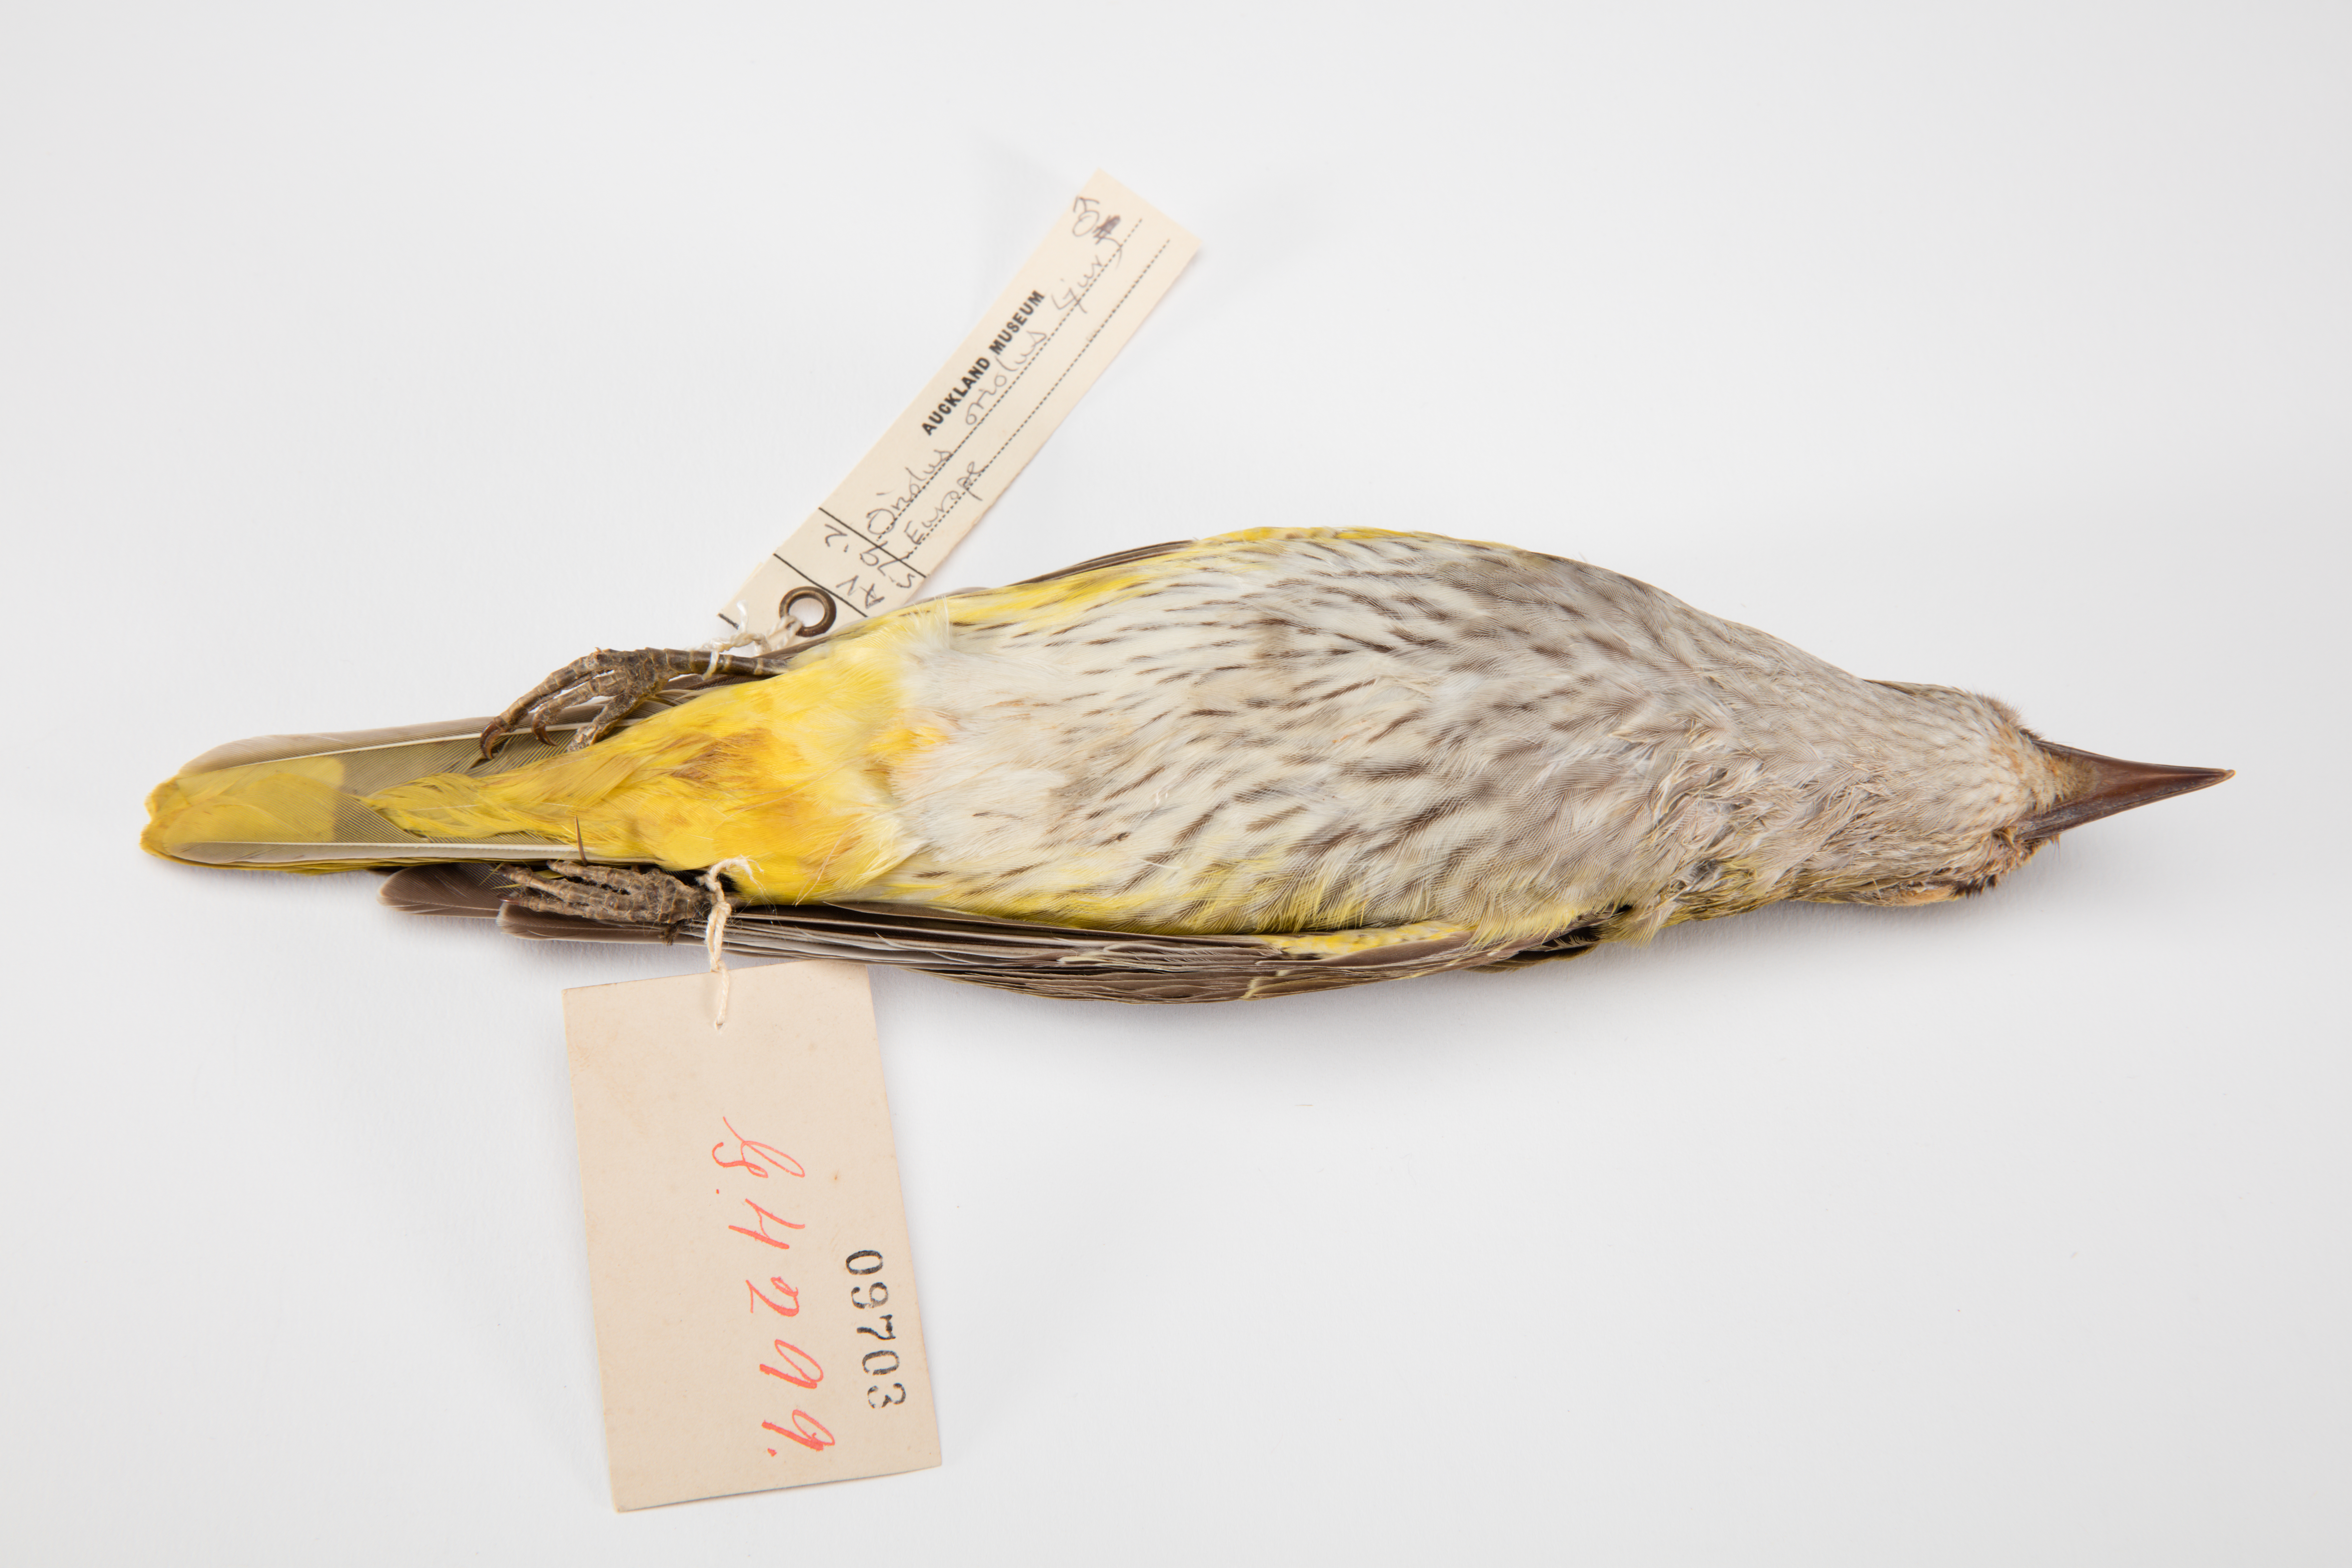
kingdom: Animalia
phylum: Chordata
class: Aves
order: Passeriformes
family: Oriolidae
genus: Oriolus
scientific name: Oriolus oriolus
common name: Eurasian golden oriole
